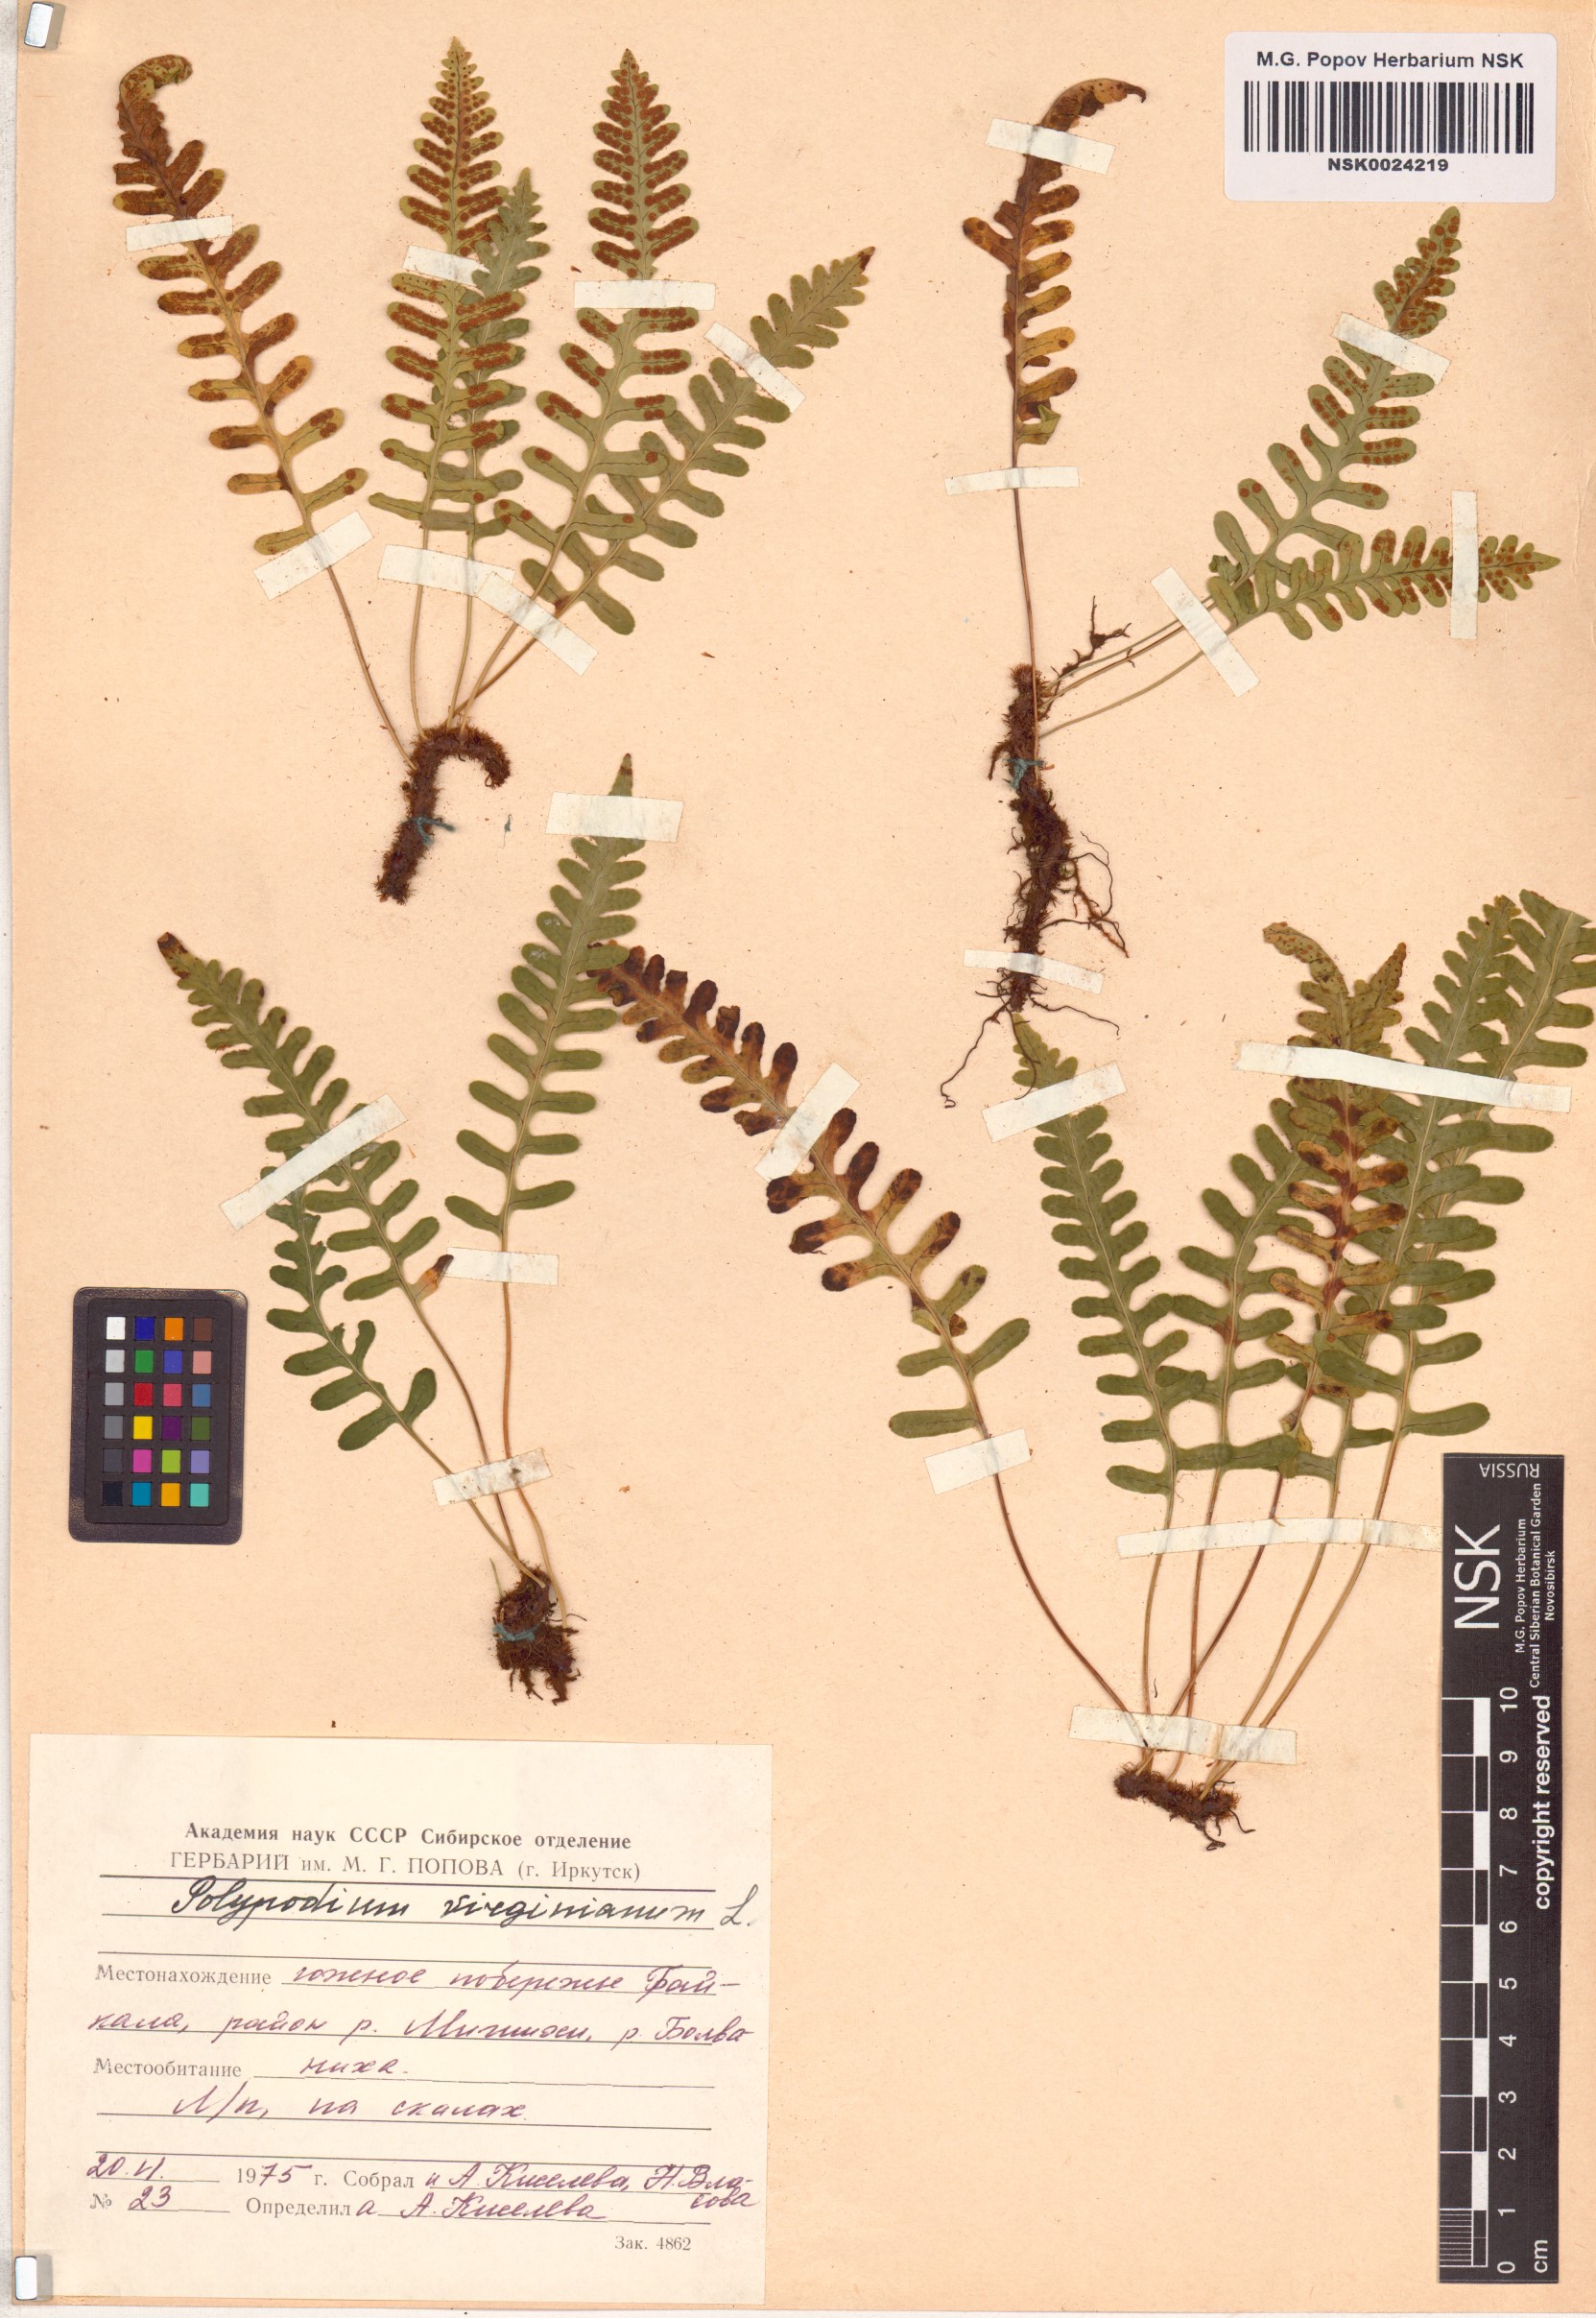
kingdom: Plantae
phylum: Tracheophyta
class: Polypodiopsida
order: Polypodiales
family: Polypodiaceae
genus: Polypodium
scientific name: Polypodium virginianum
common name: American wall fern
